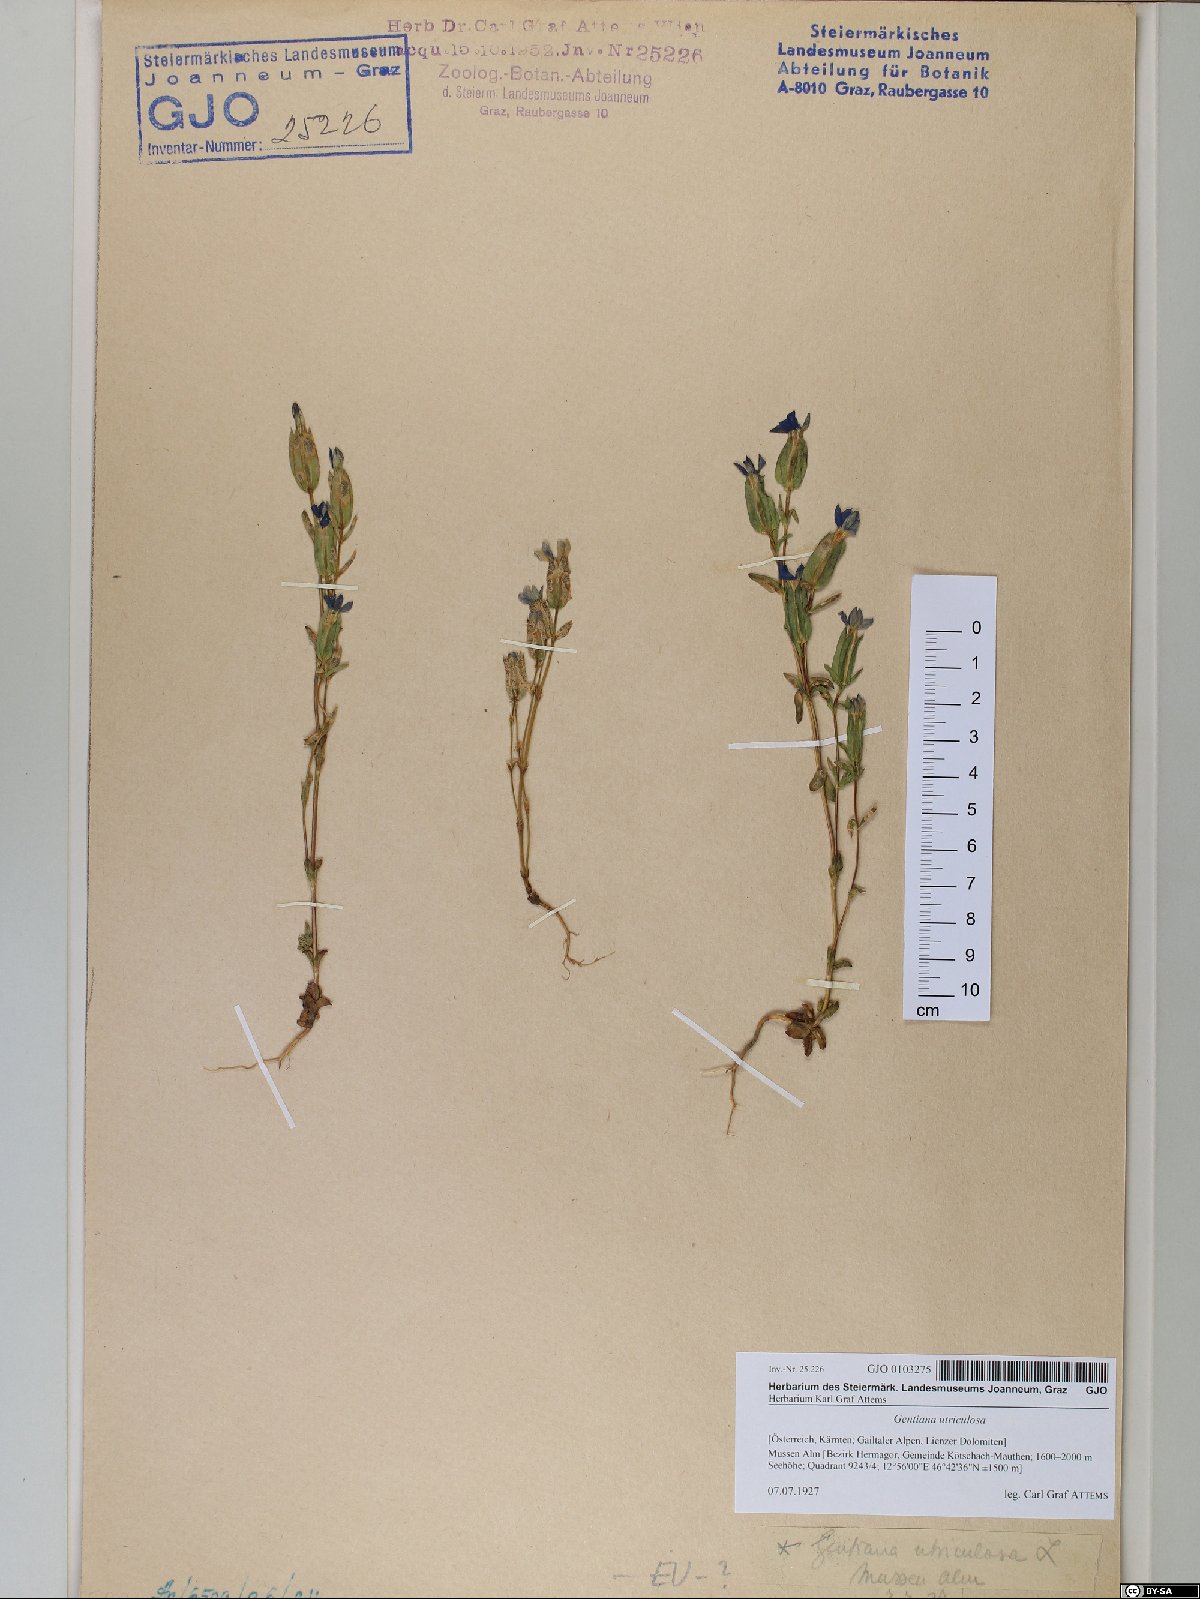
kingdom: Plantae
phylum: Tracheophyta
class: Magnoliopsida
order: Gentianales
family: Gentianaceae
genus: Gentiana
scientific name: Gentiana utriculosa
